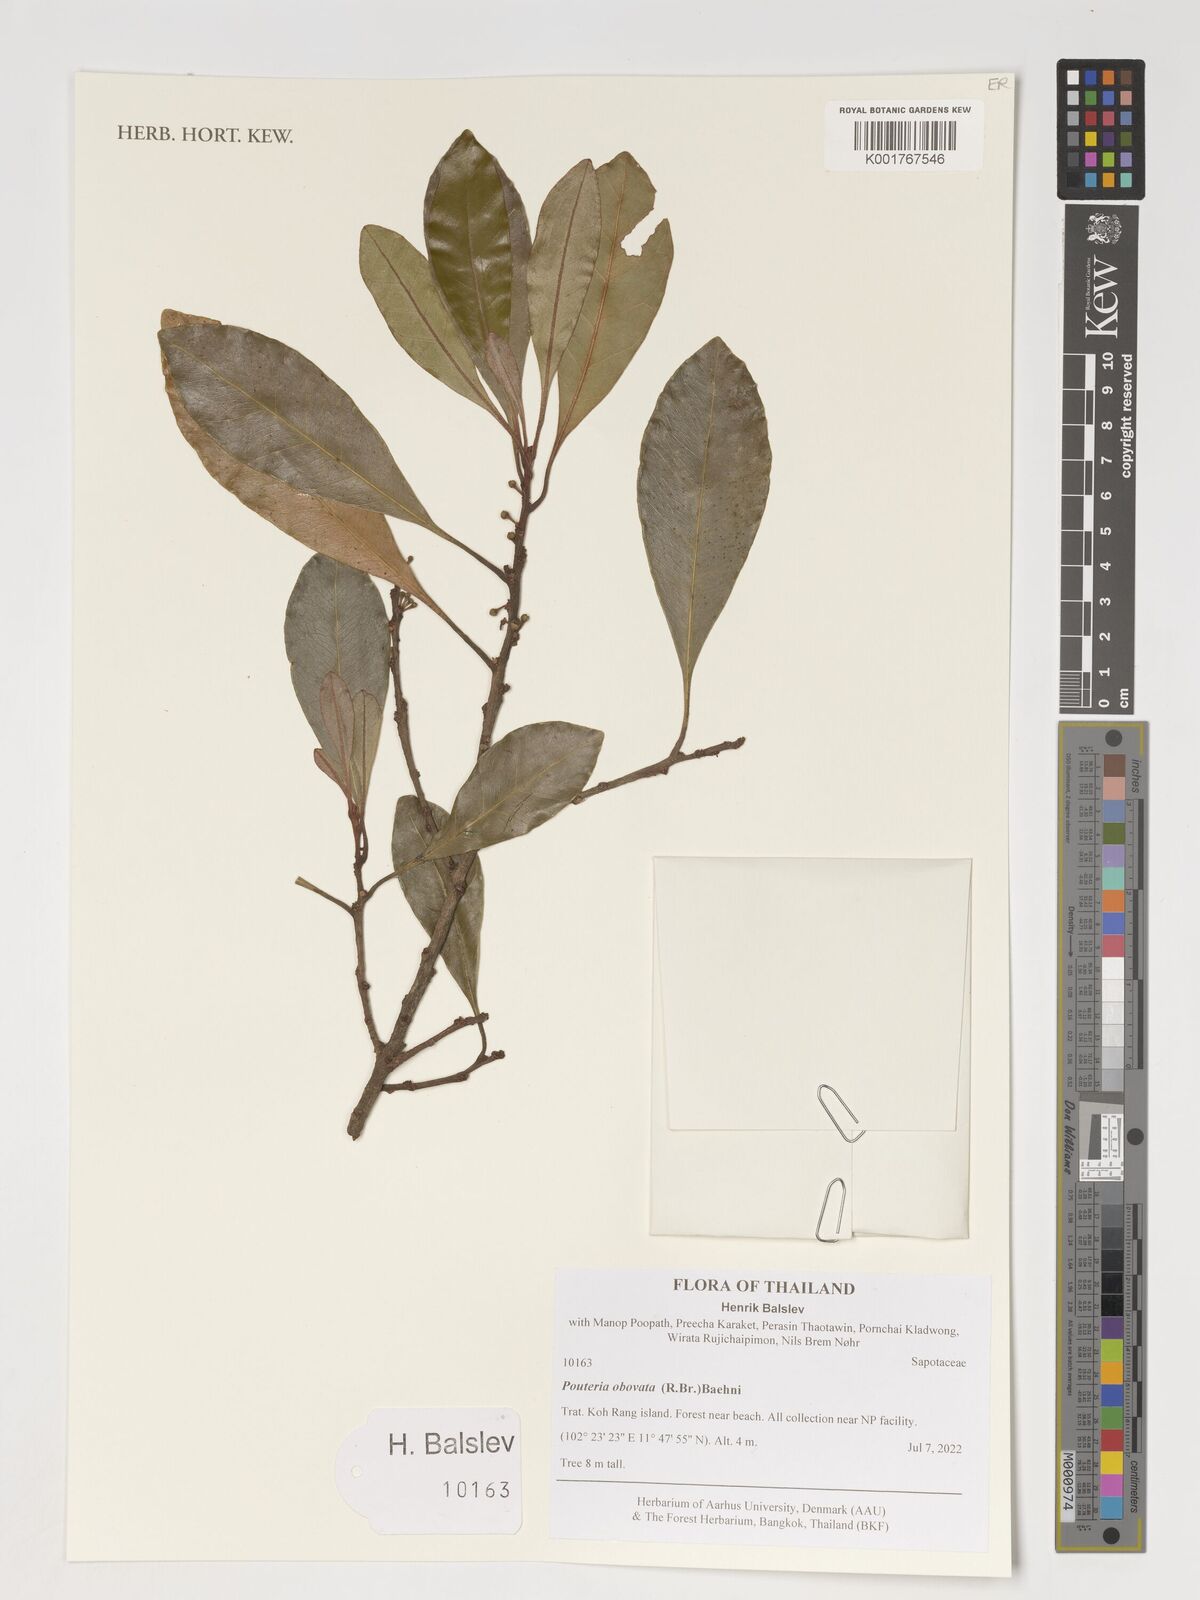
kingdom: Plantae
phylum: Tracheophyta
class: Magnoliopsida
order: Ericales
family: Sapotaceae
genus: Planchonella
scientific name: Planchonella obovata
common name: Black-ash
